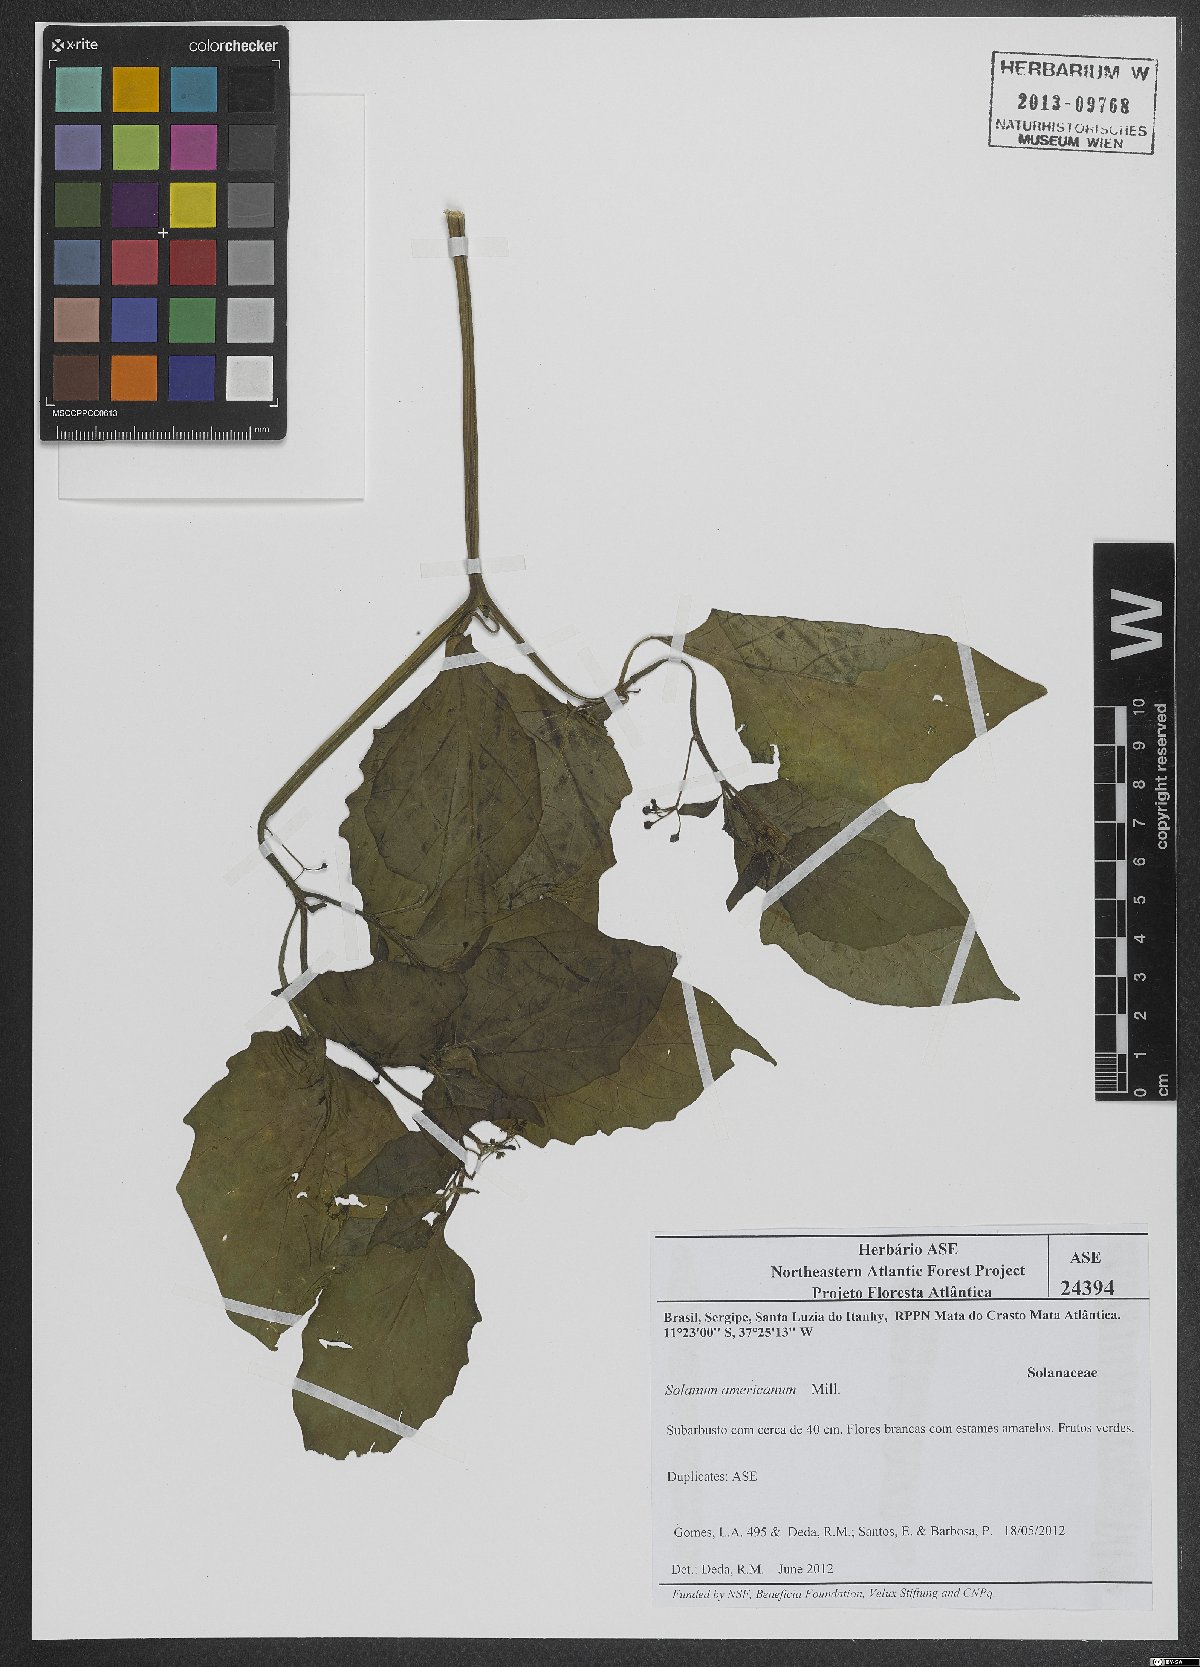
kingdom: Plantae
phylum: Tracheophyta
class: Magnoliopsida
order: Solanales
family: Solanaceae
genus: Solanum
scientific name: Solanum americanum
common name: American black nightshade
